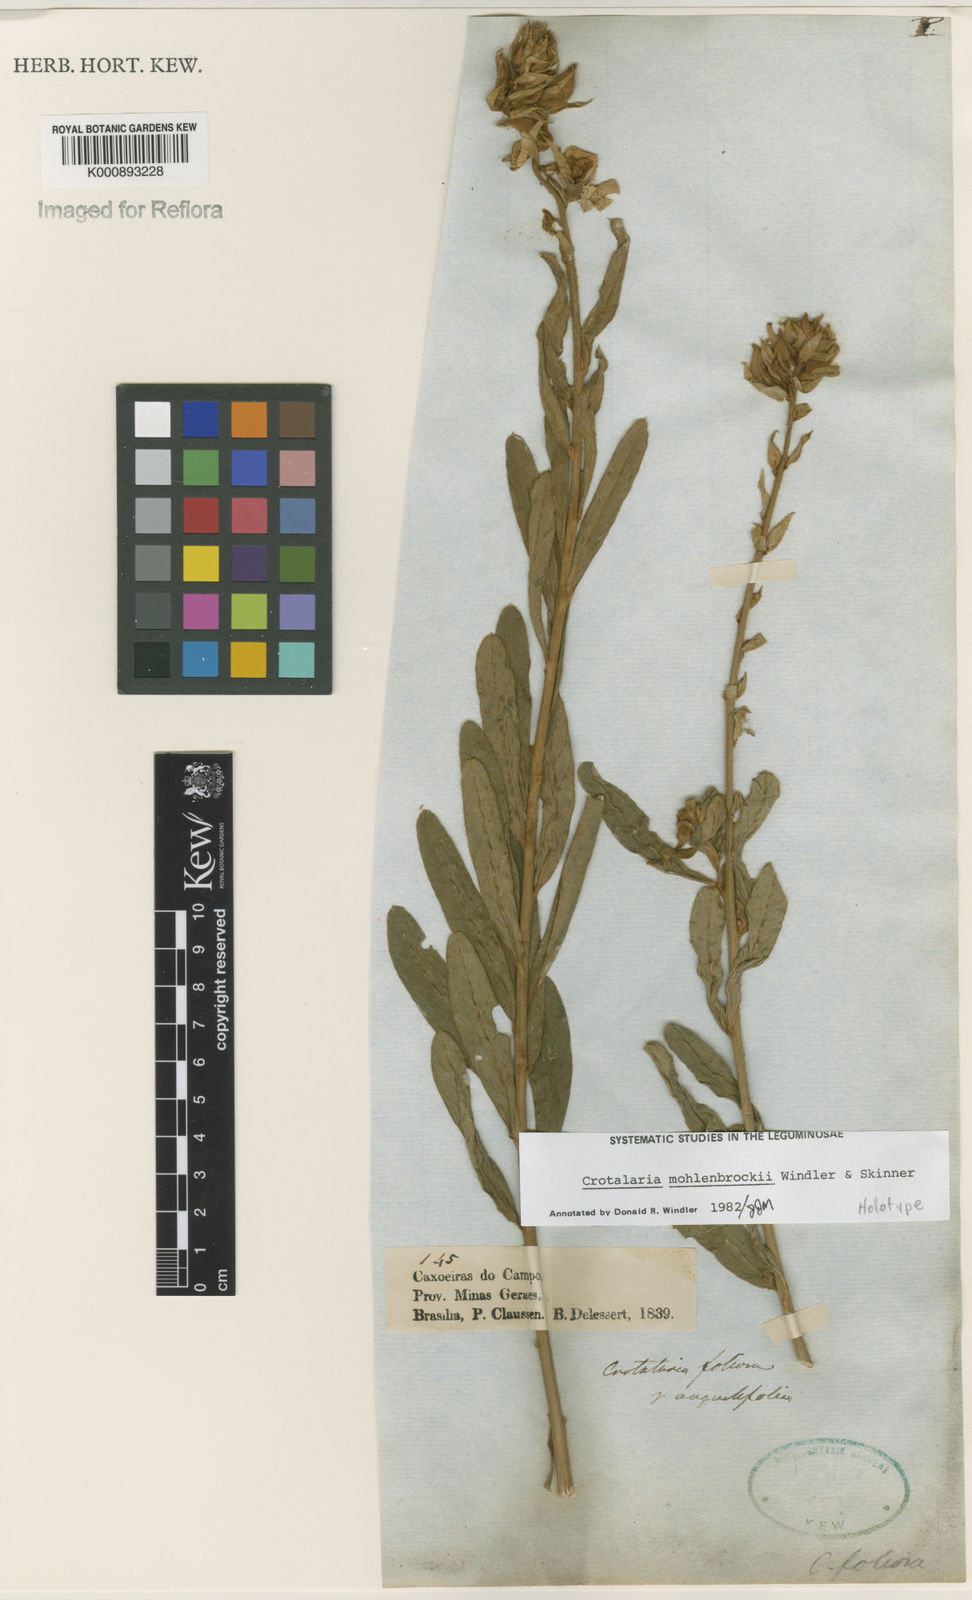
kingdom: Plantae
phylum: Tracheophyta
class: Magnoliopsida
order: Fabales
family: Fabaceae
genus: Crotalaria
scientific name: Crotalaria martiana
